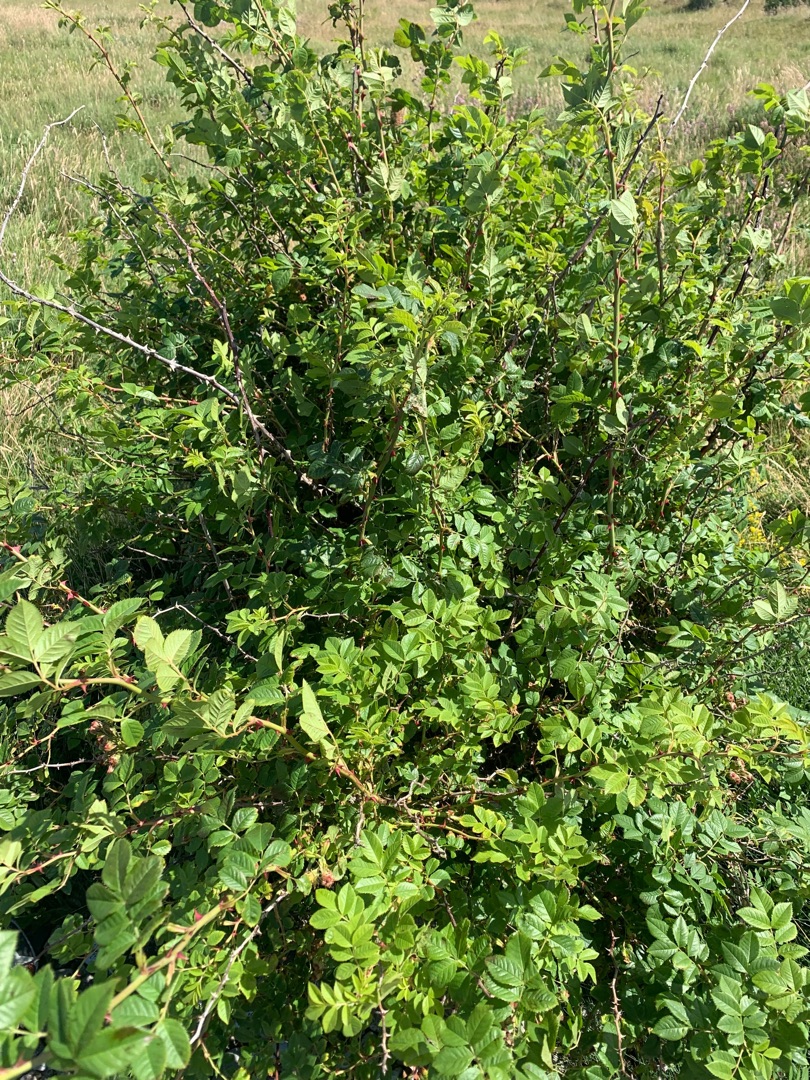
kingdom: Plantae
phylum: Tracheophyta
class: Magnoliopsida
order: Rosales
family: Rosaceae
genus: Rosa
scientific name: Rosa canina
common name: Glat hunde-rose
